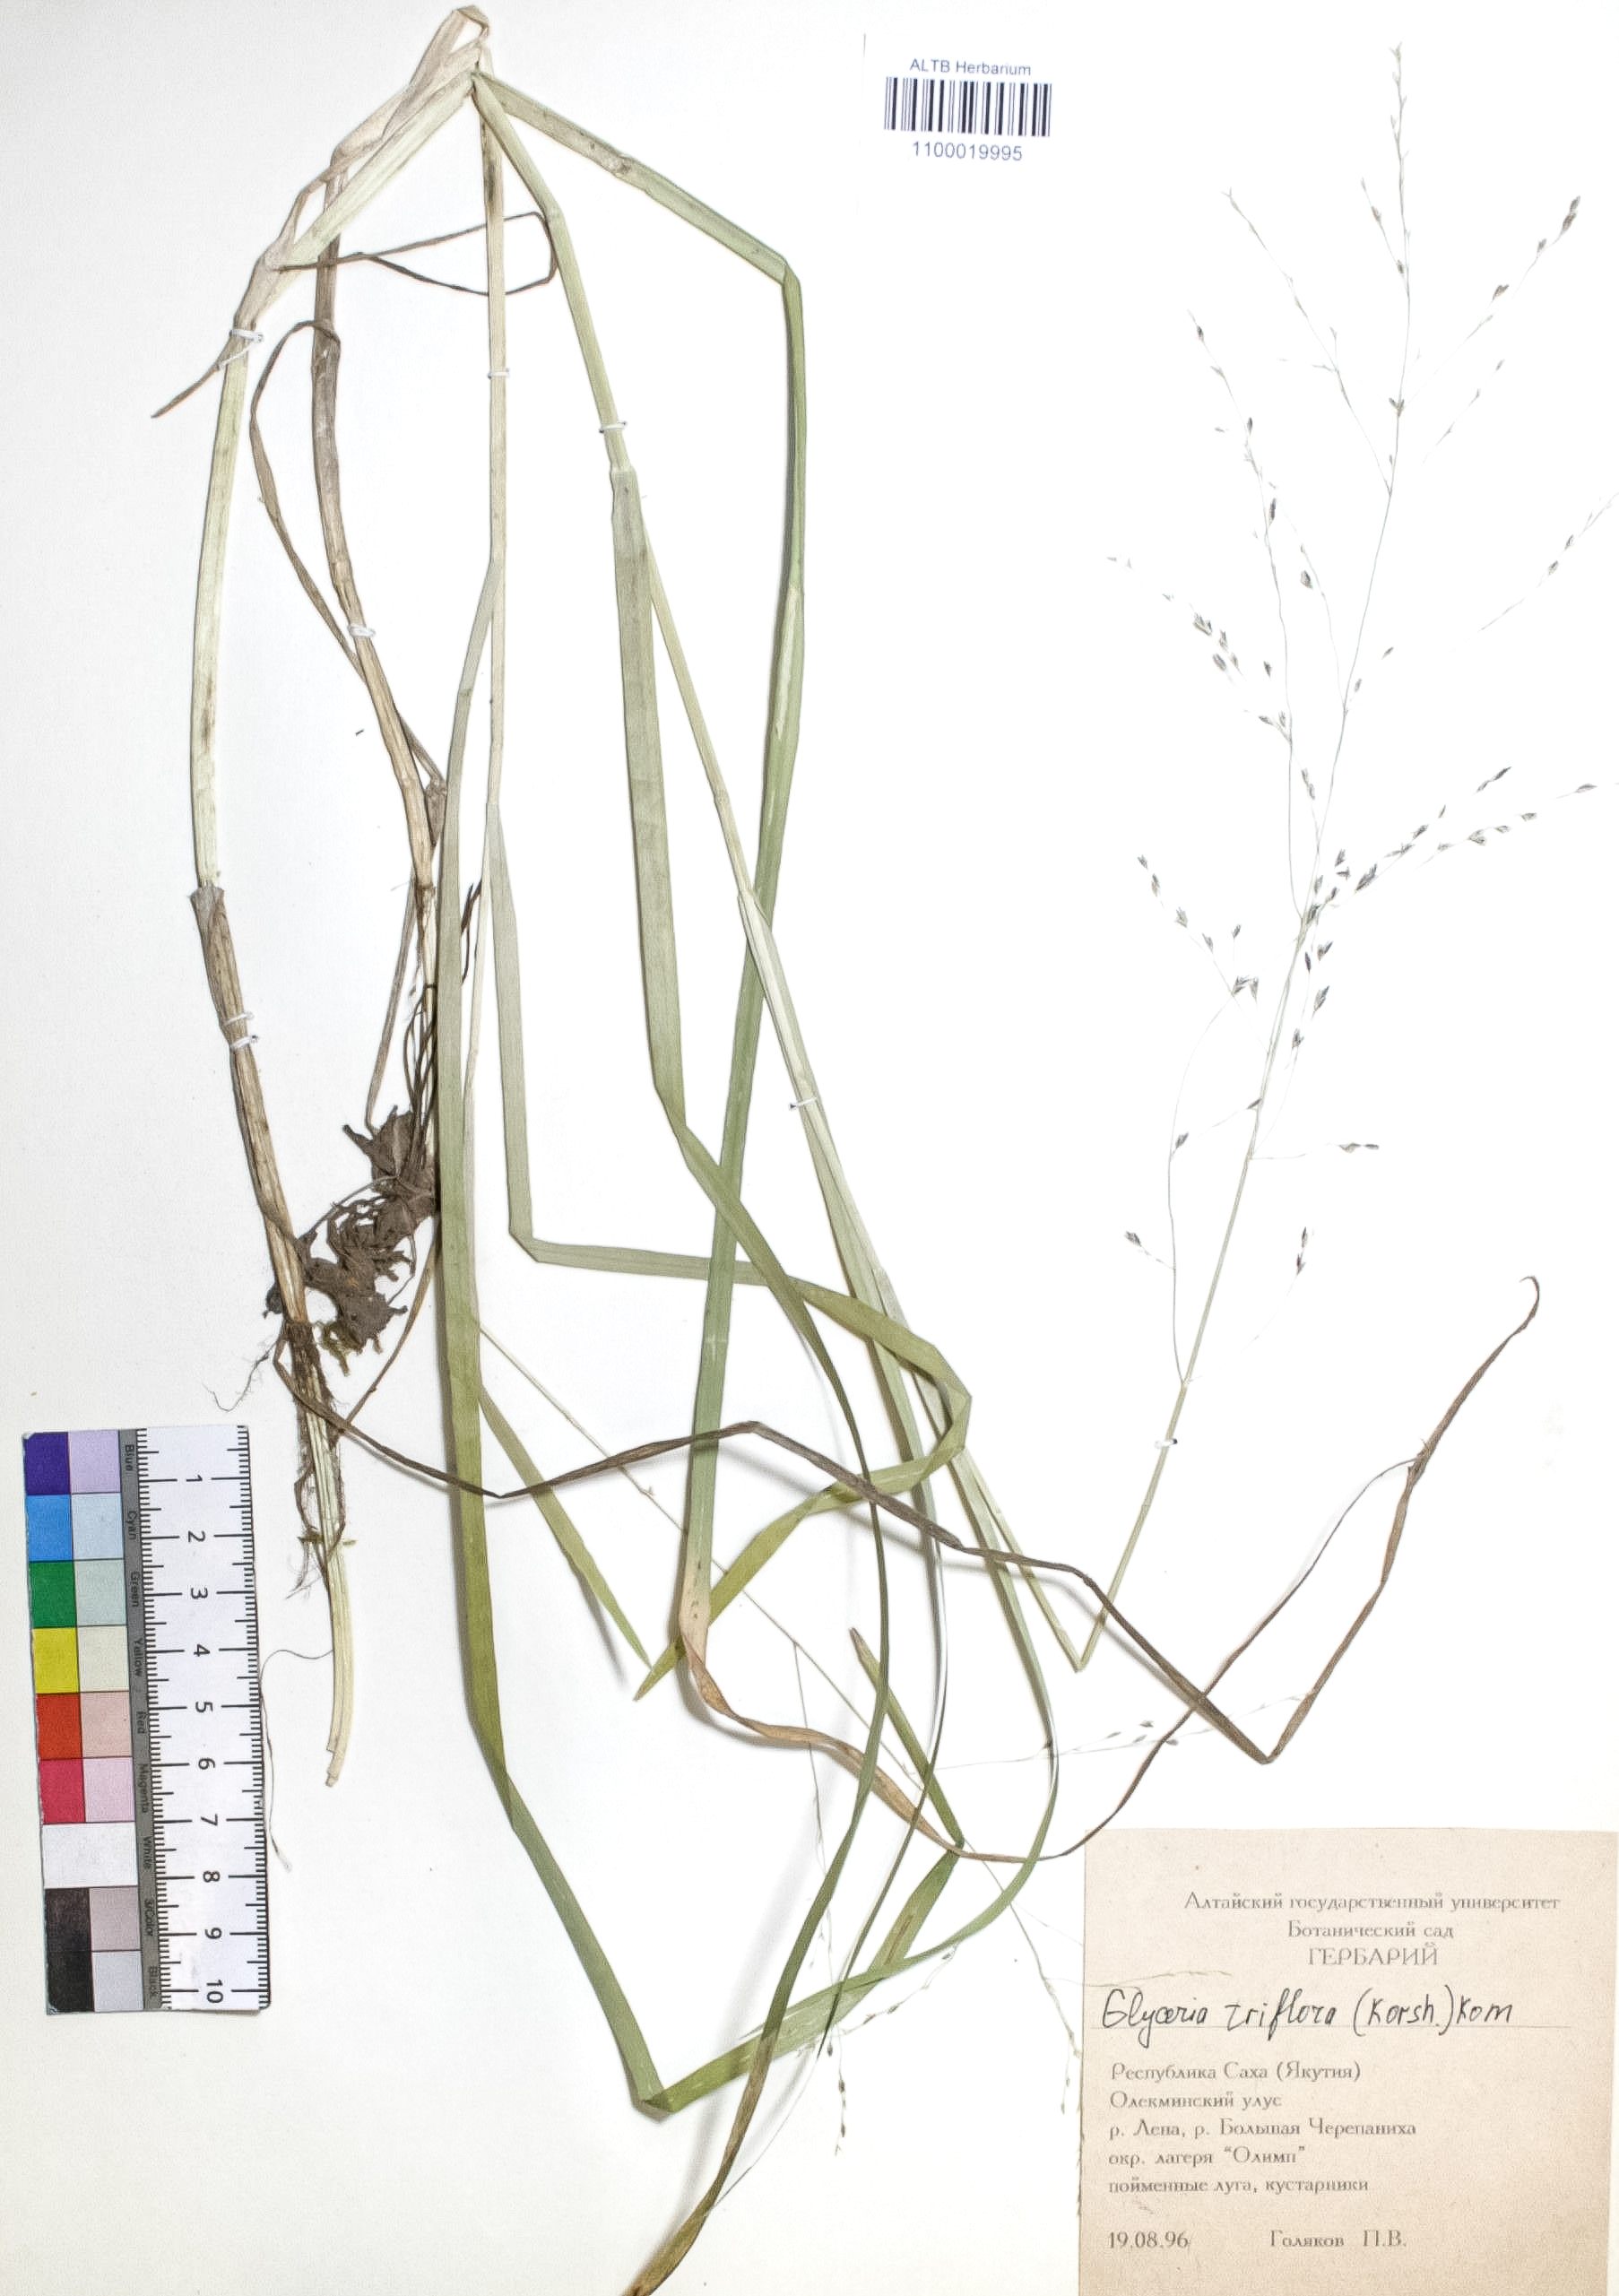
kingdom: Plantae
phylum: Tracheophyta
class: Liliopsida
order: Poales
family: Poaceae
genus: Glyceria
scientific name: Glyceria lithuanica
